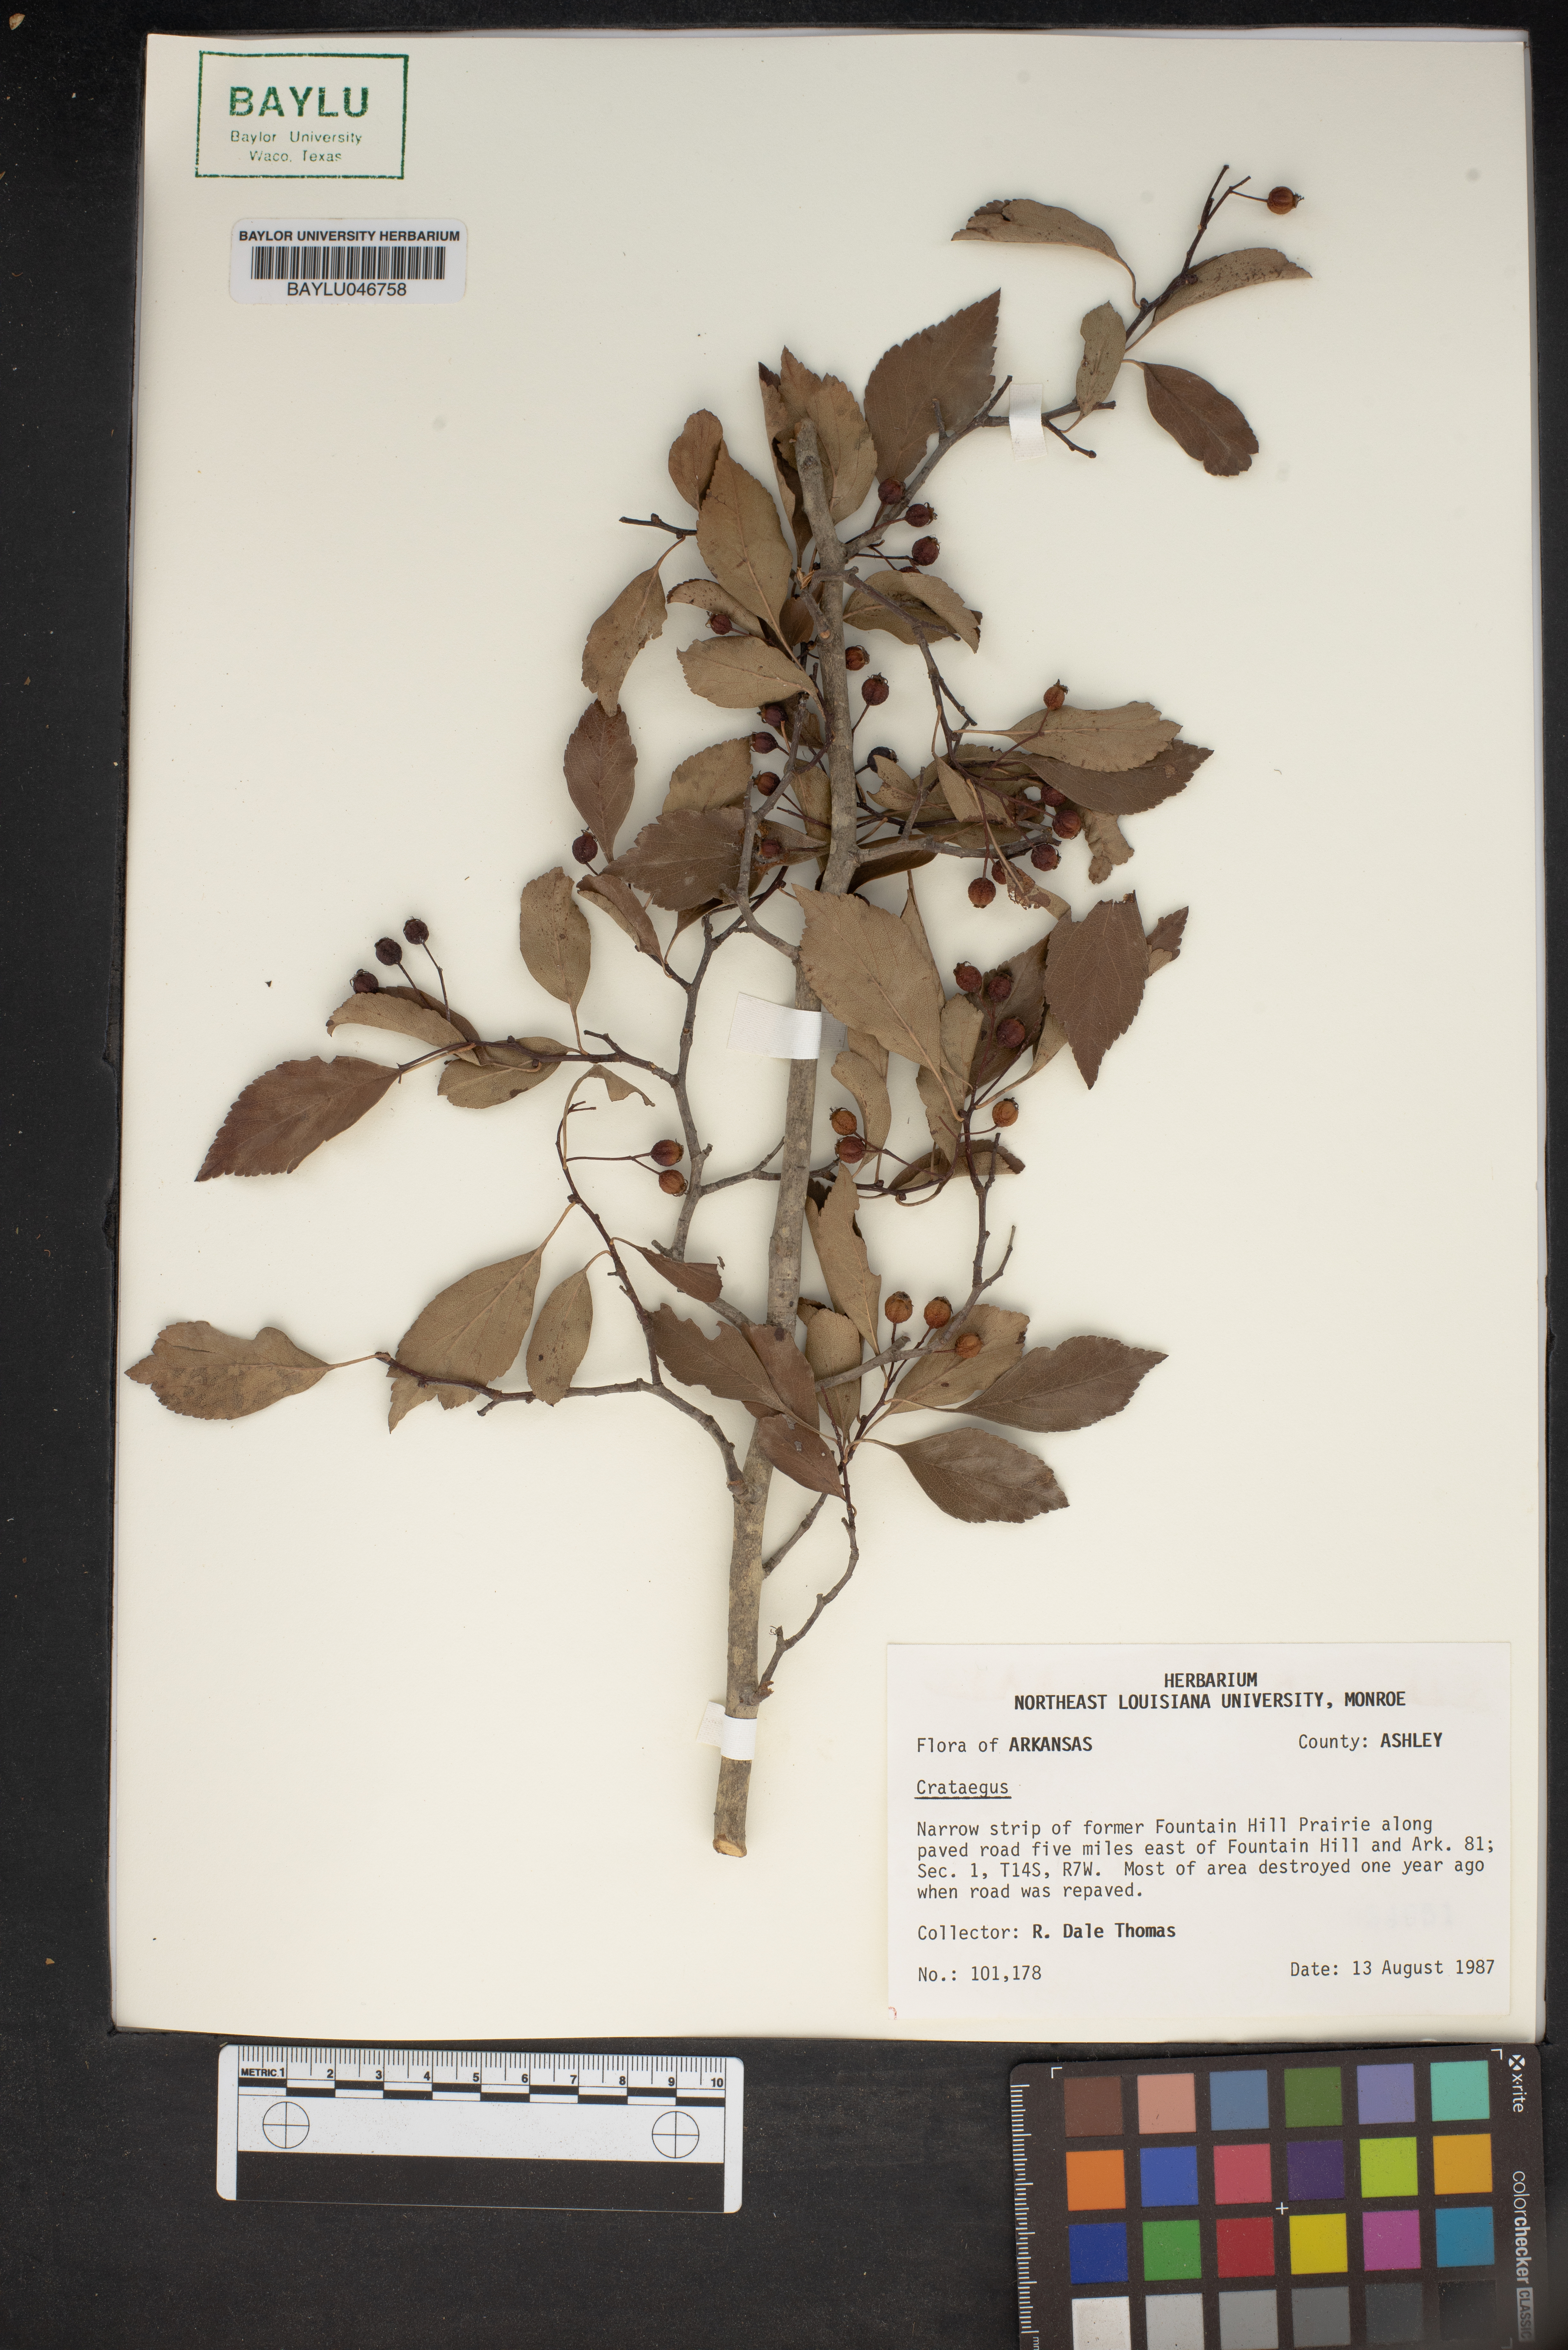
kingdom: Plantae
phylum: Tracheophyta
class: Magnoliopsida
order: Rosales
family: Rosaceae
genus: Crataegus
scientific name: Crataegus
